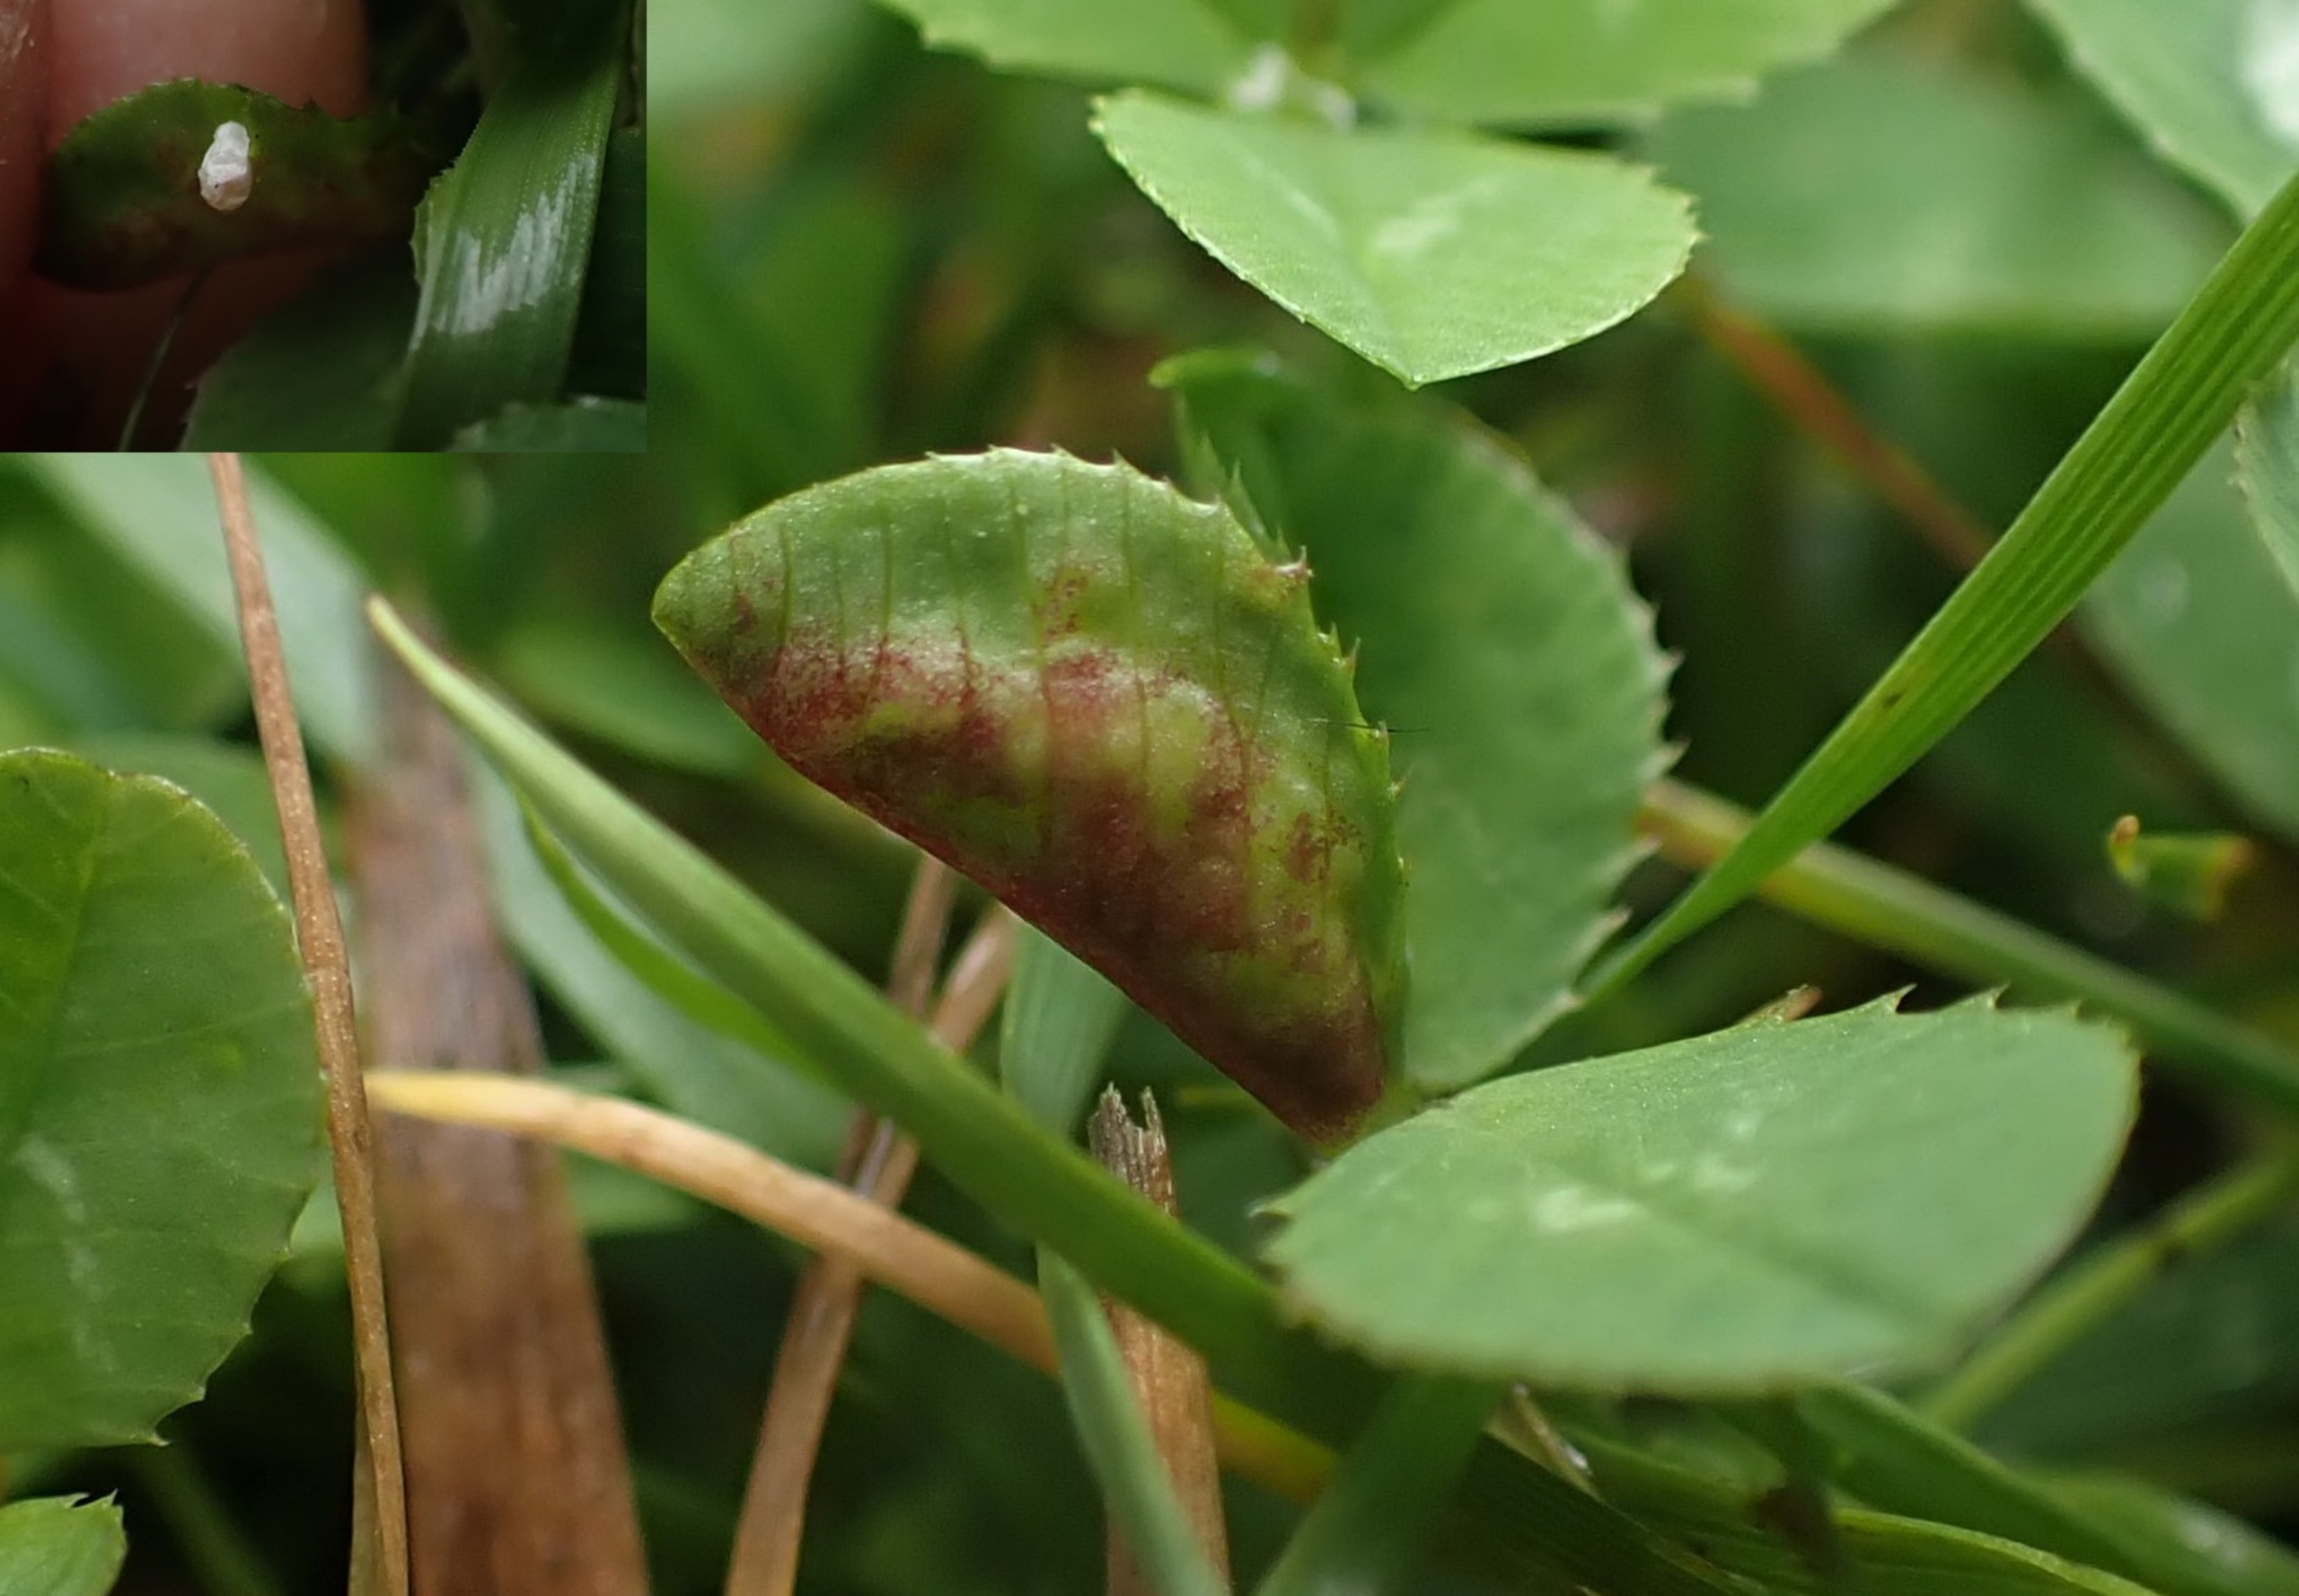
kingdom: Animalia
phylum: Arthropoda
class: Insecta
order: Diptera
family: Cecidomyiidae
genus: Dasineura
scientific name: Dasineura trifolii
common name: Kløverbladgalmyg
